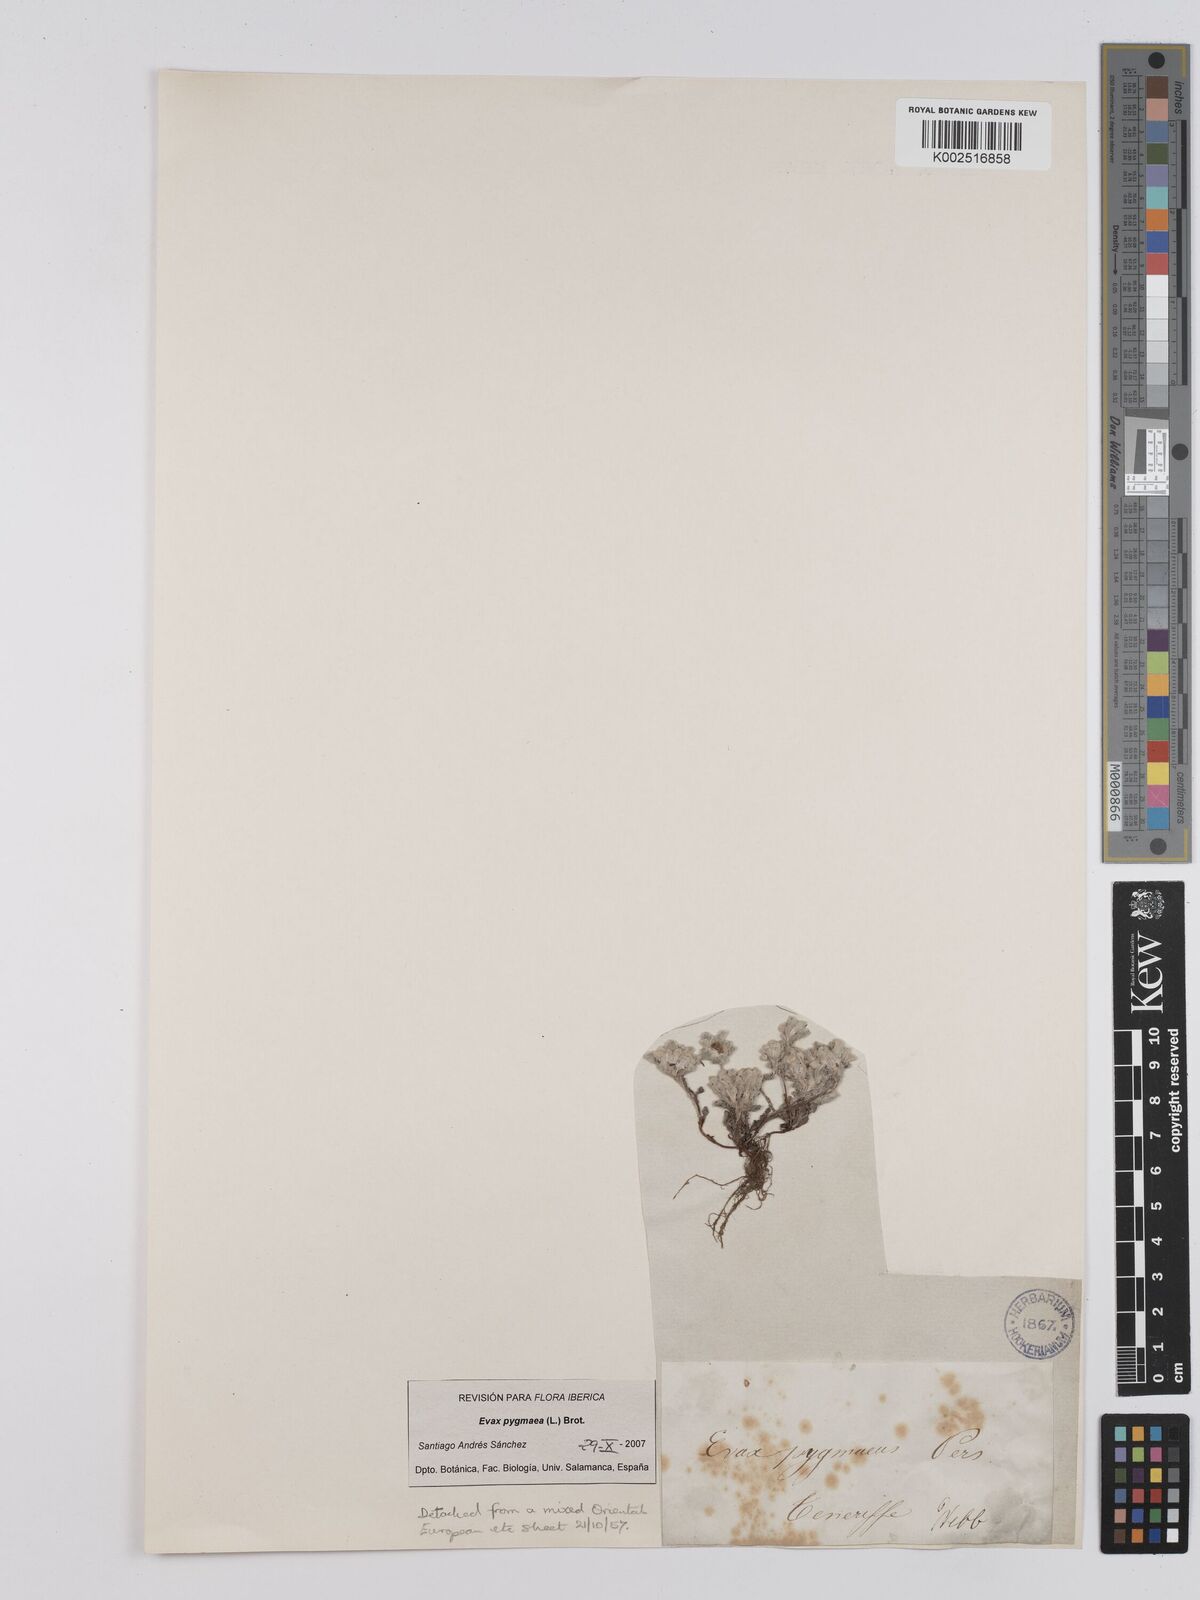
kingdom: Plantae
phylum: Tracheophyta
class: Magnoliopsida
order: Asterales
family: Asteraceae
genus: Filago
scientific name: Filago pygmaea
